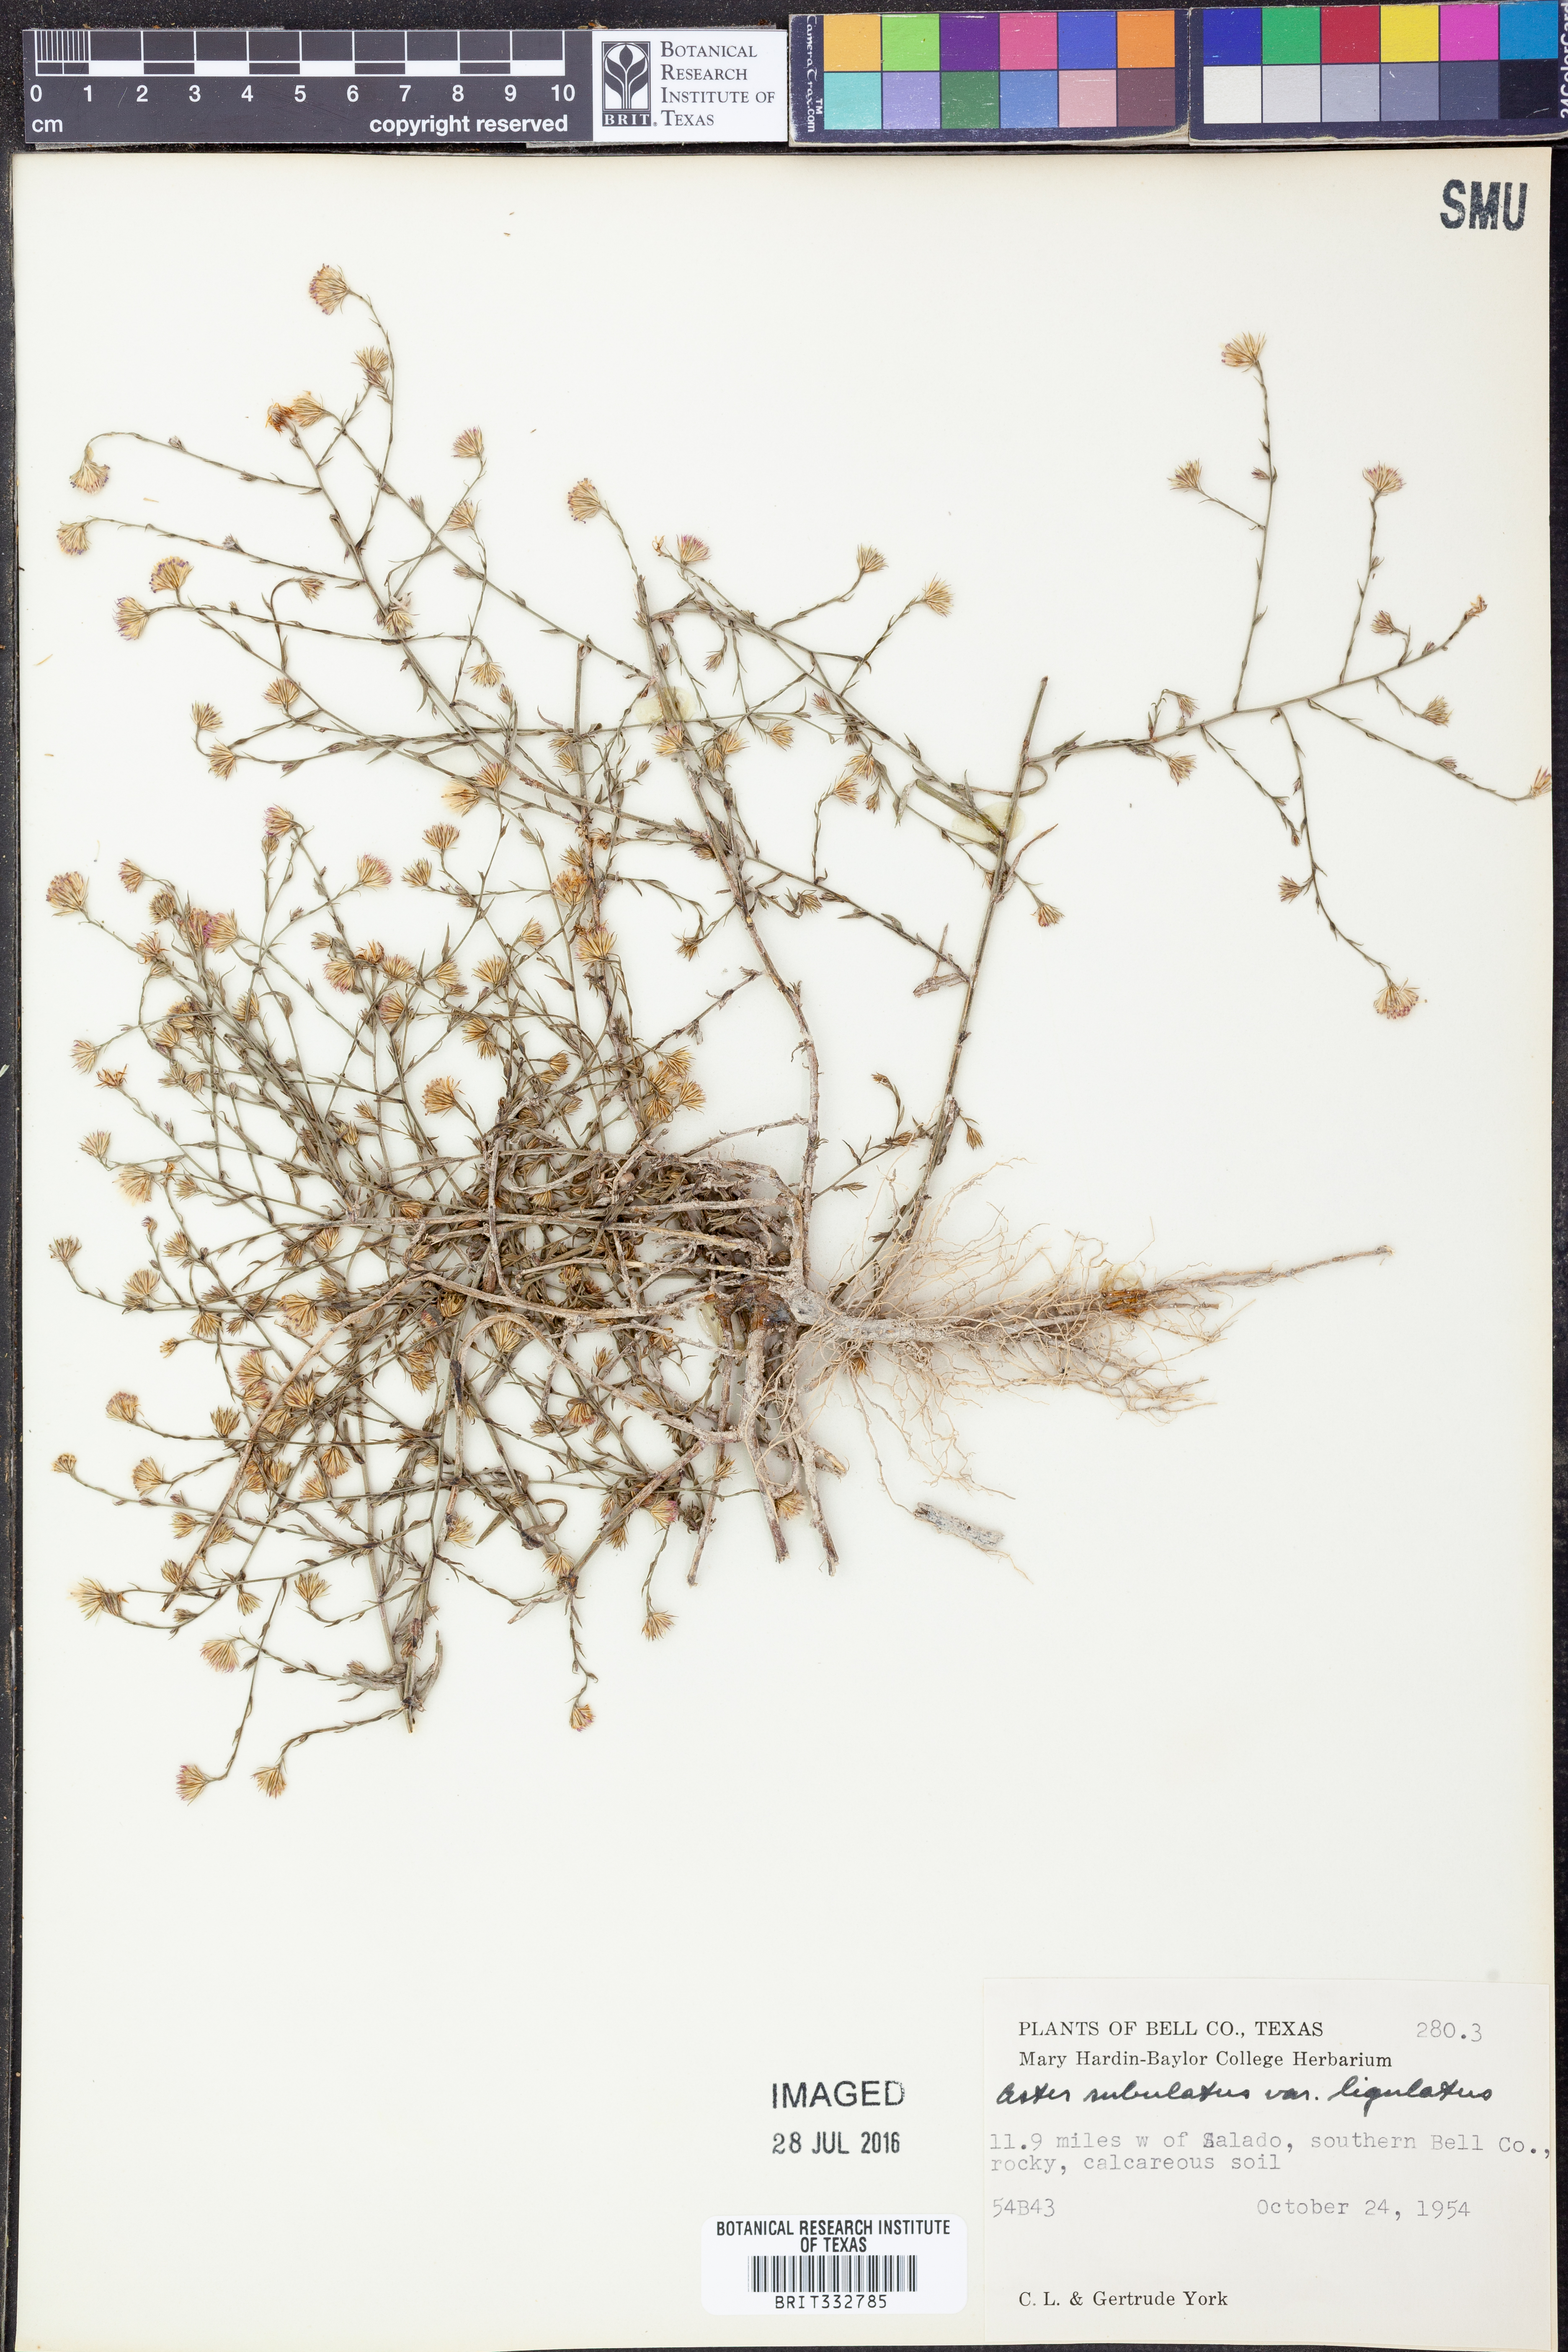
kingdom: Plantae
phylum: Tracheophyta
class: Magnoliopsida
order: Asterales
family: Asteraceae
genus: Symphyotrichum
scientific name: Symphyotrichum divaricatum
